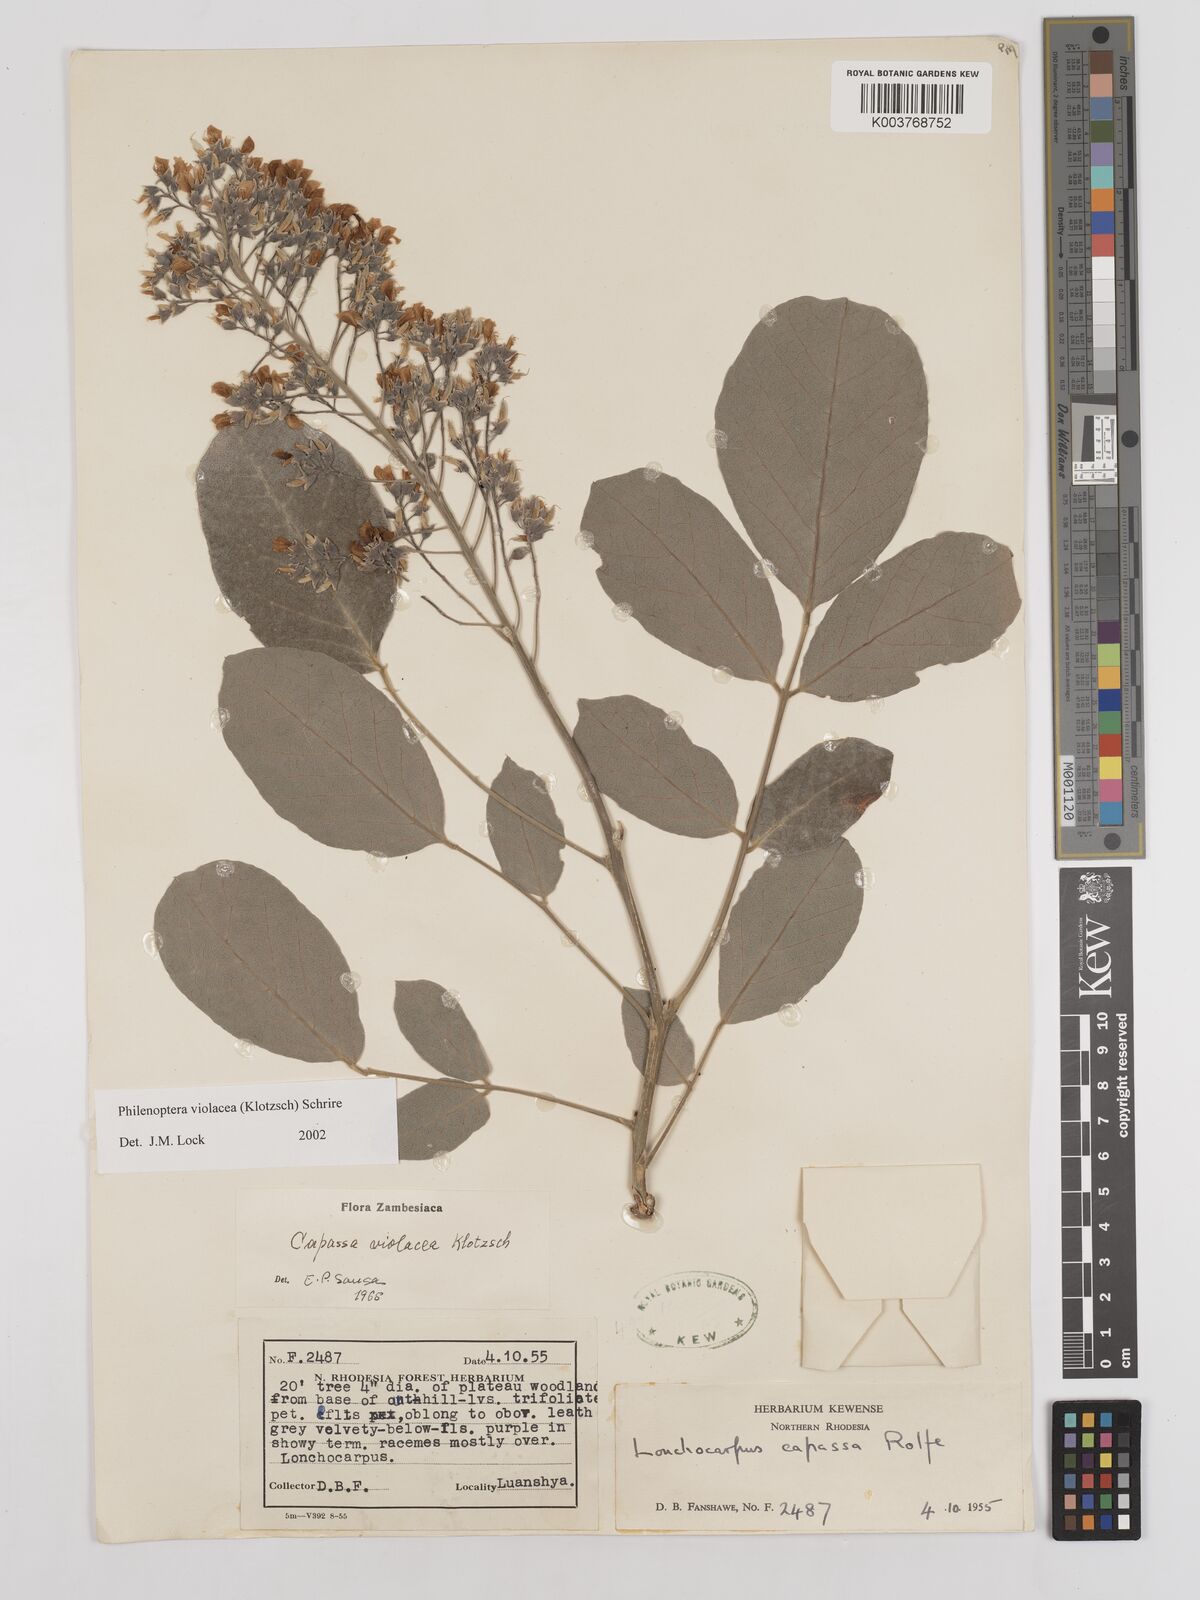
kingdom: Plantae
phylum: Tracheophyta
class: Magnoliopsida
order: Fabales
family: Fabaceae
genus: Philenoptera
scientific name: Philenoptera violacea
